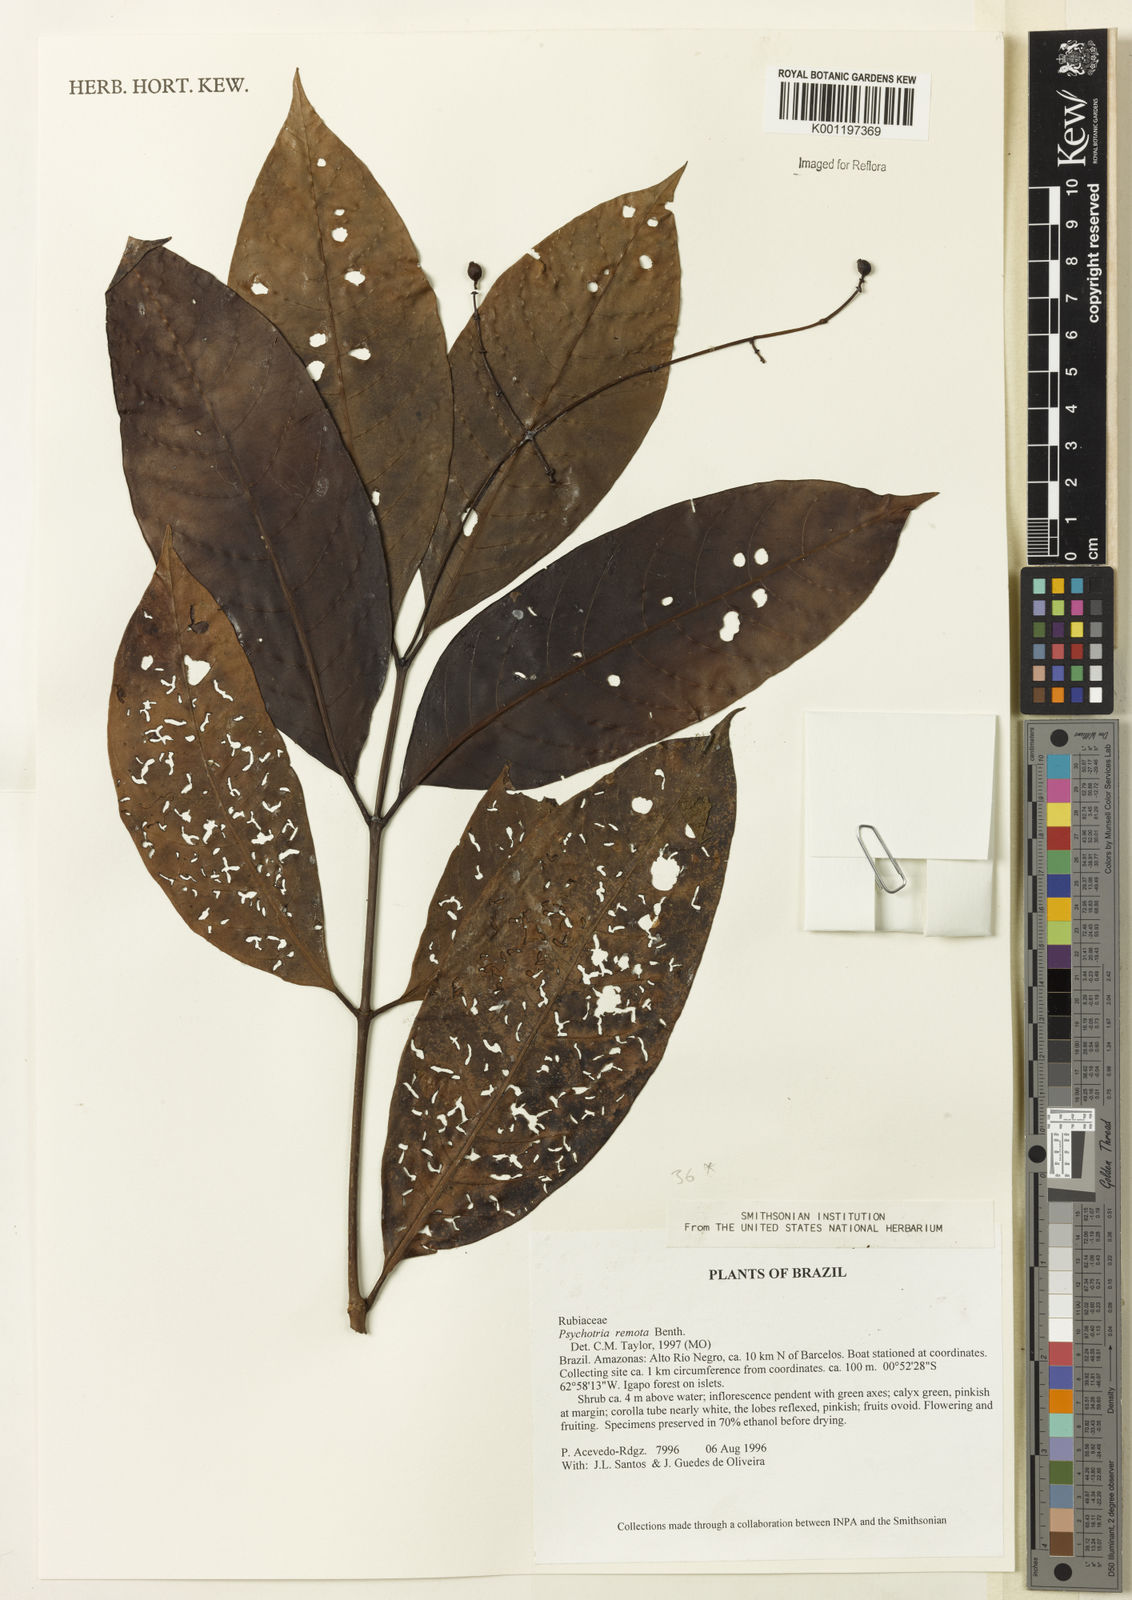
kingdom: Plantae
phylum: Tracheophyta
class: Magnoliopsida
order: Gentianales
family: Rubiaceae
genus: Psychotria
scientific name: Psychotria remota
